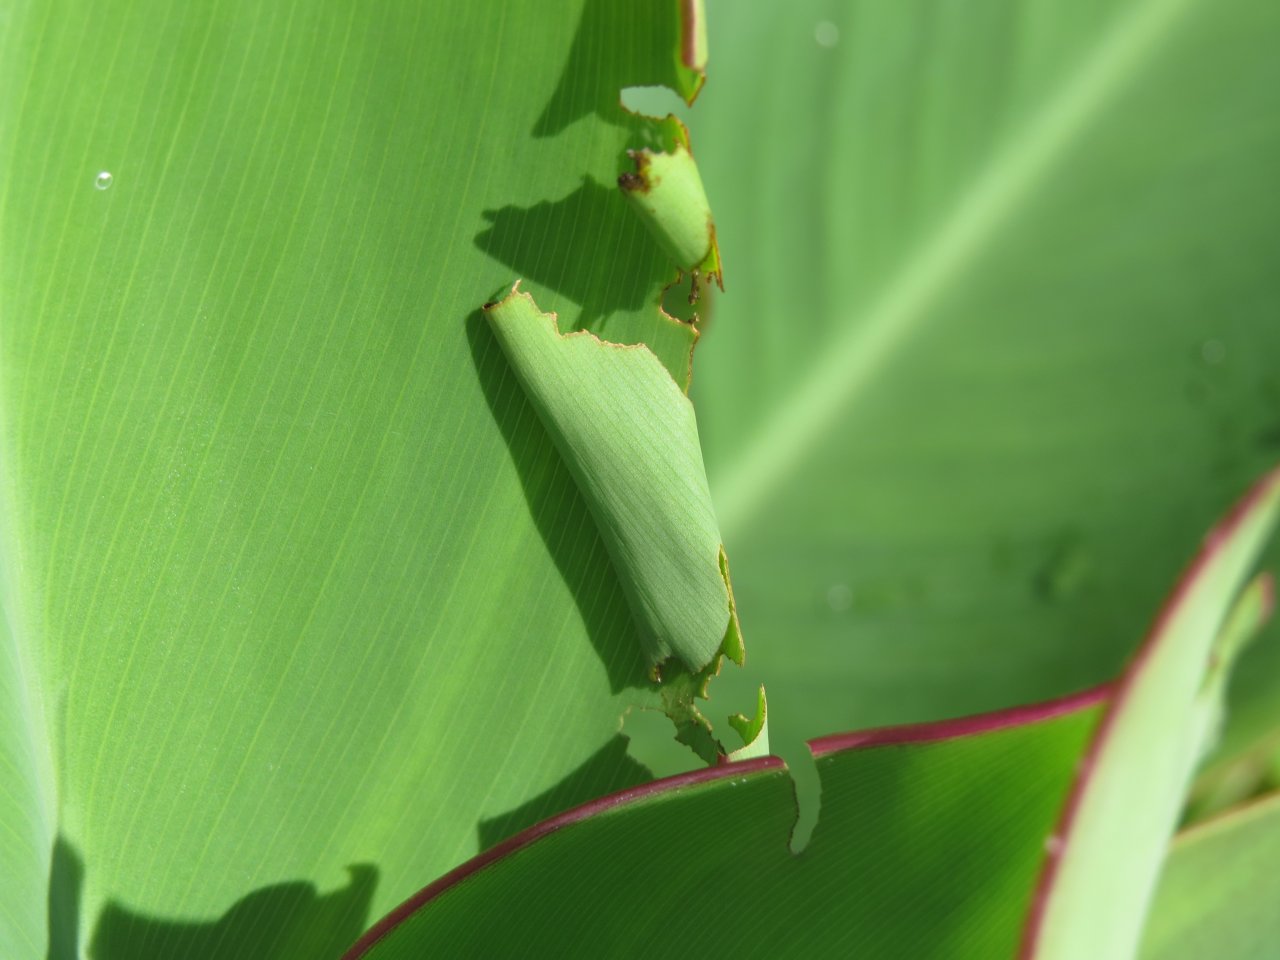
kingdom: Animalia
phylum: Arthropoda
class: Insecta
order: Lepidoptera
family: Hesperiidae
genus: Calpodes
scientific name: Calpodes ethlius
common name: Brazilian Skipper
